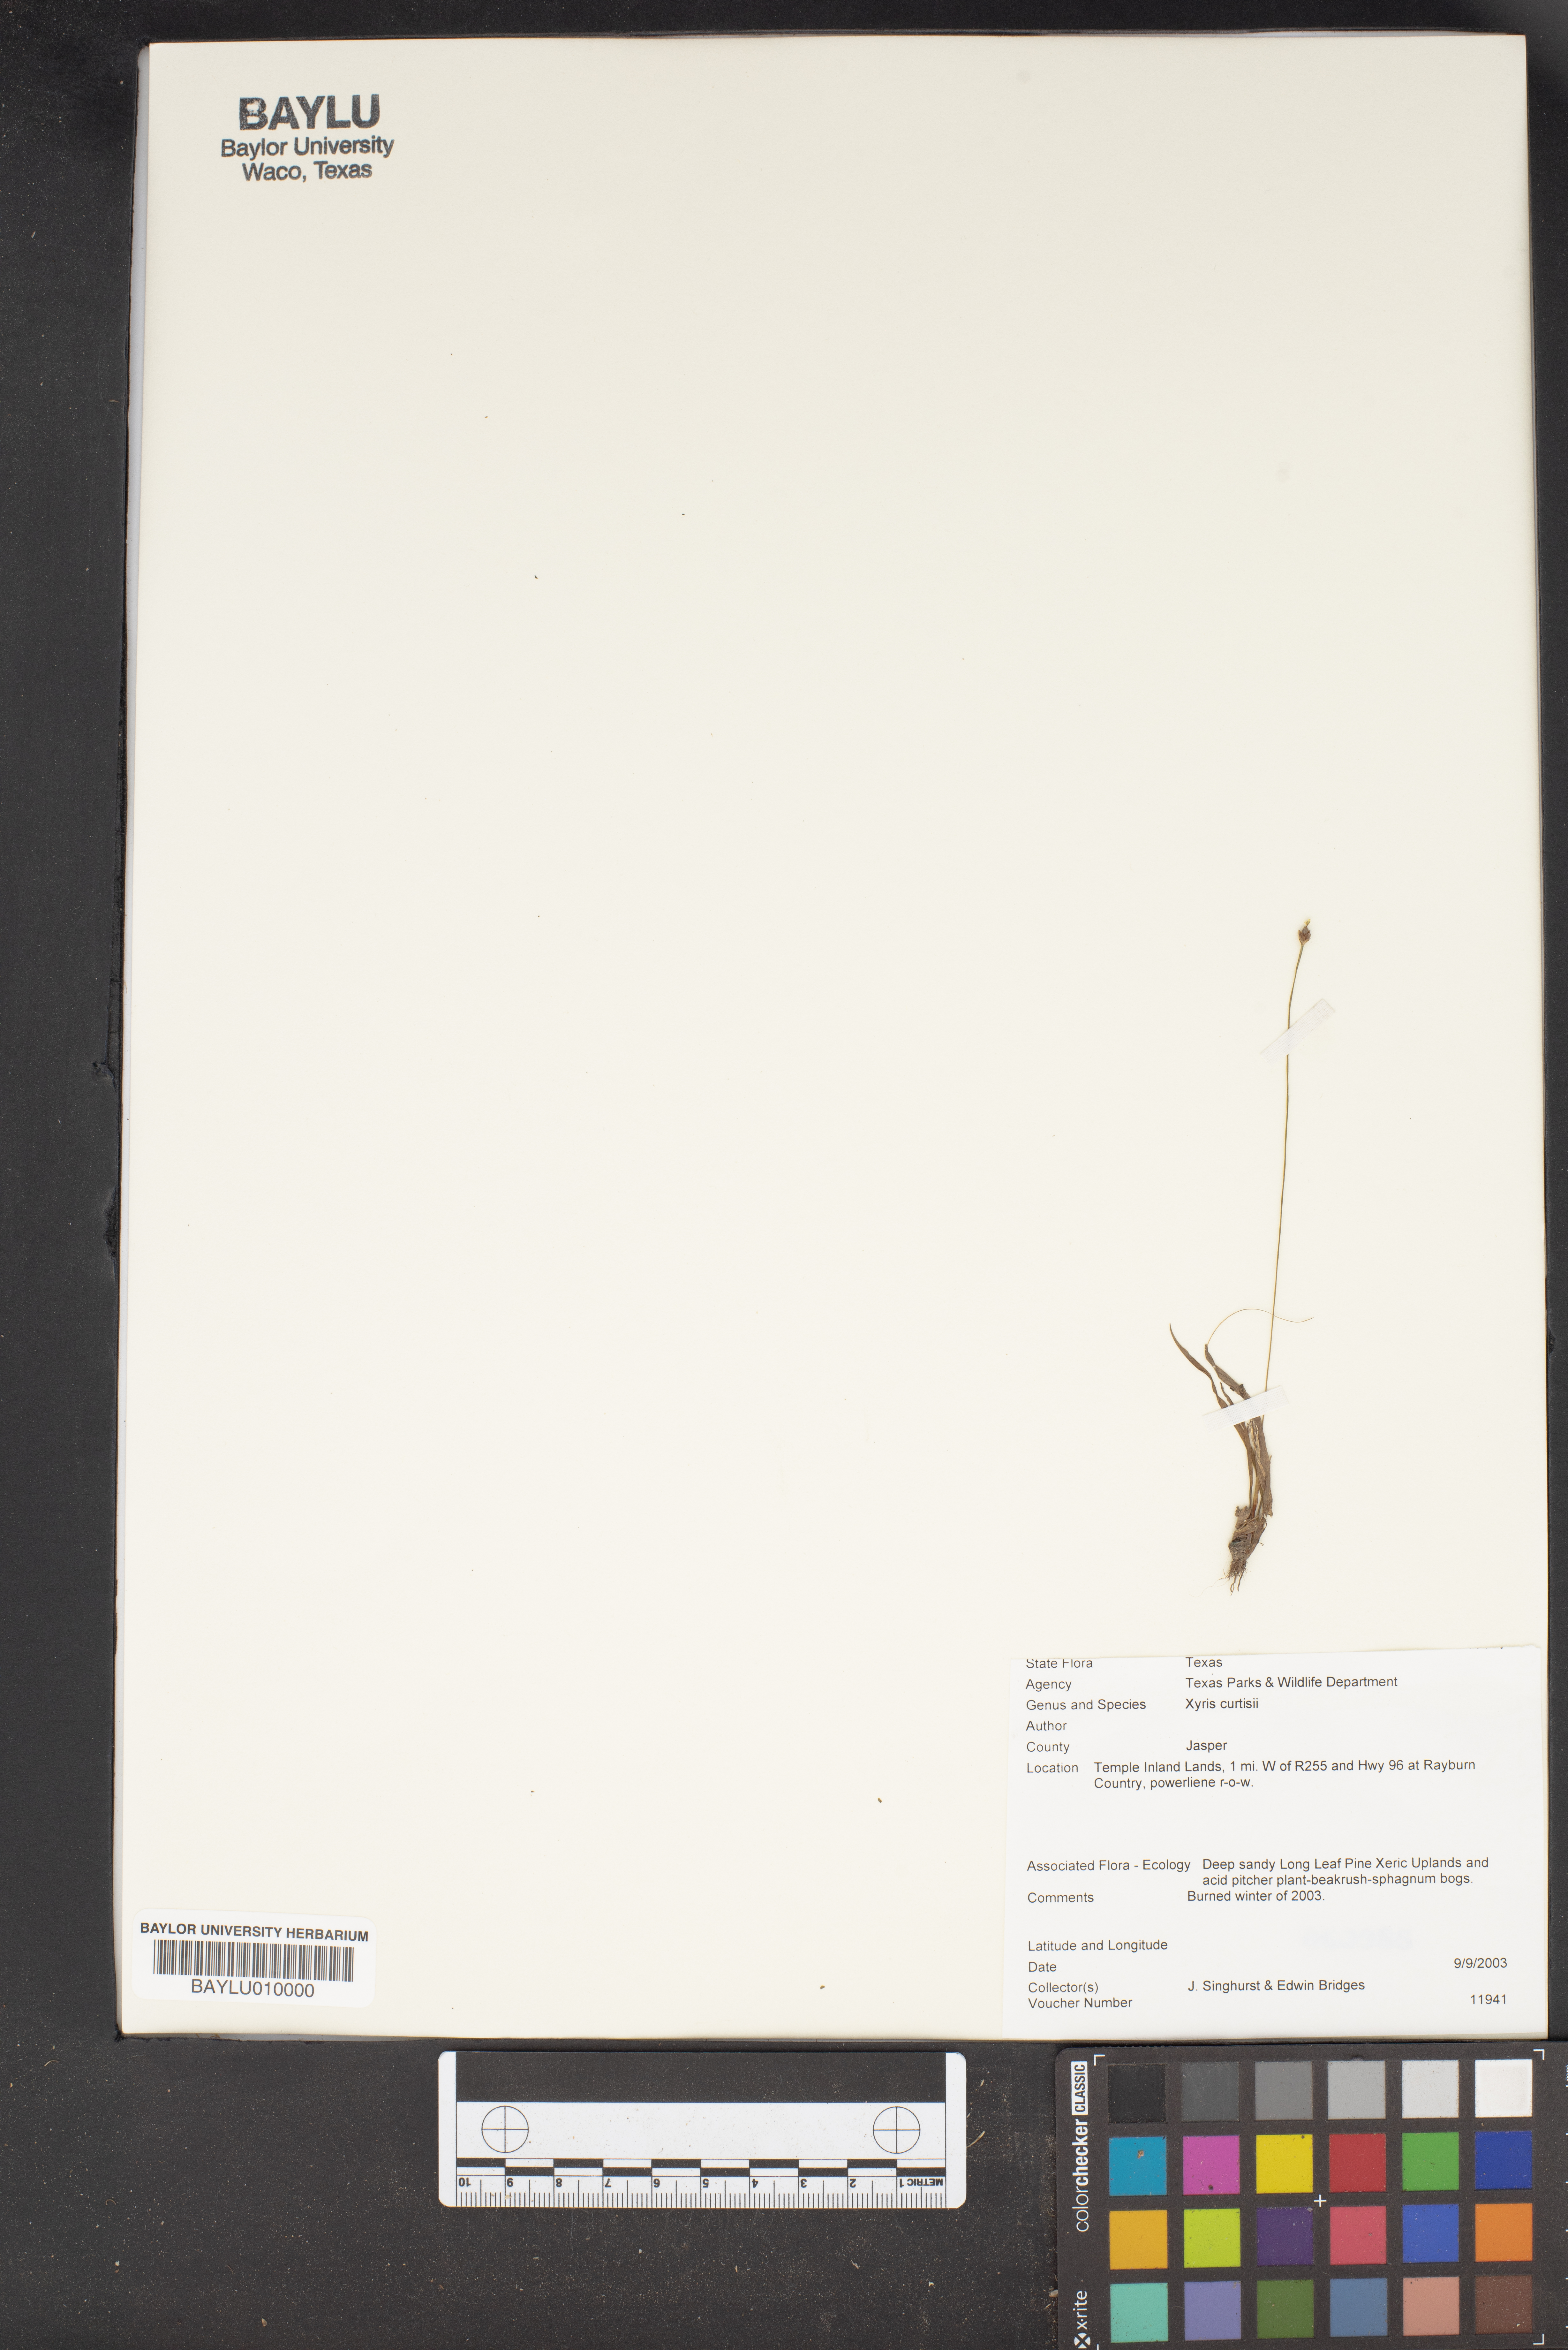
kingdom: Plantae
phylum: Tracheophyta
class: Liliopsida
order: Poales
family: Xyridaceae
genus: Xyris
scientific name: Xyris difformis
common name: Bog yellow-eyed-grass
